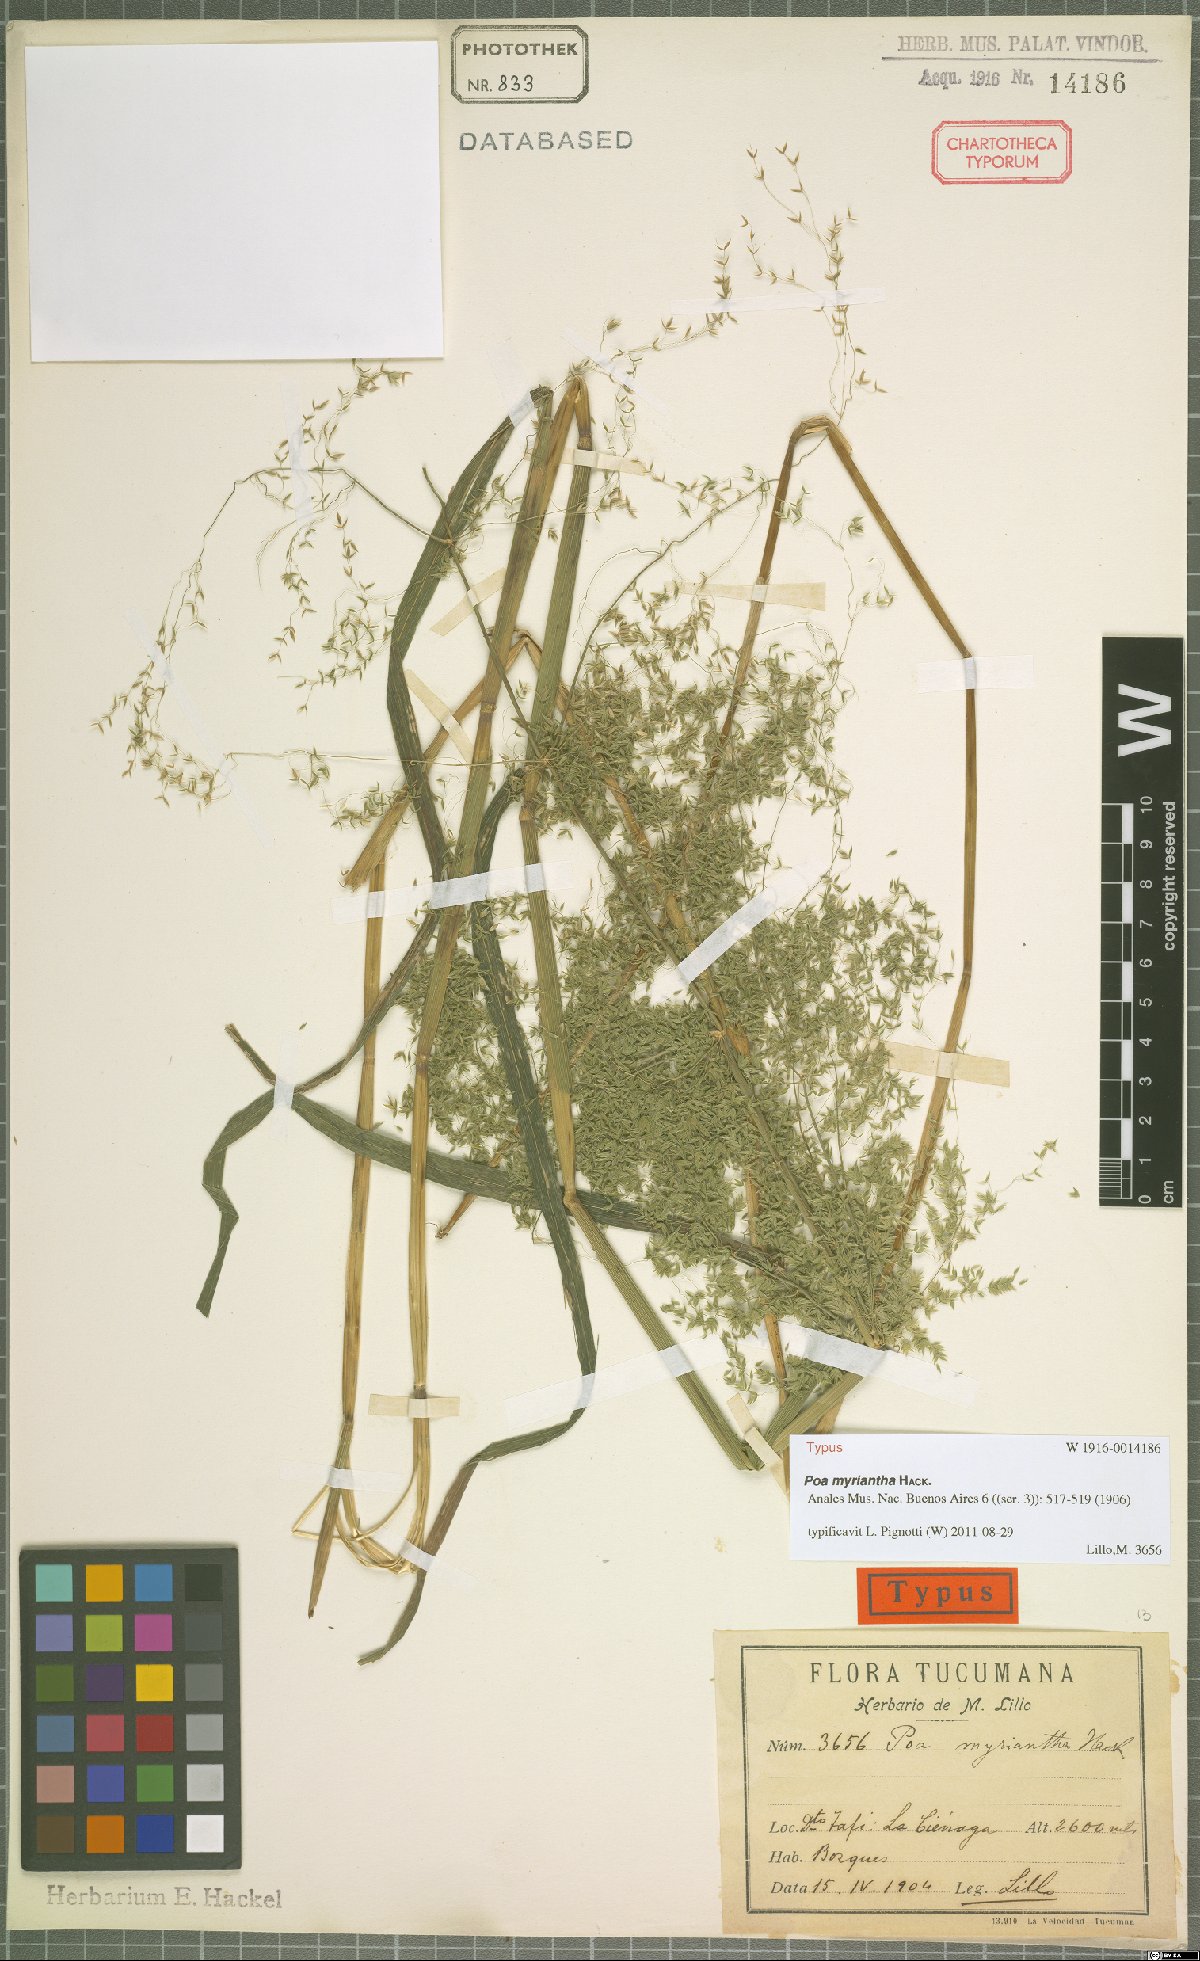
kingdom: Plantae
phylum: Tracheophyta
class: Liliopsida
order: Poales
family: Poaceae
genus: Poa
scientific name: Poa myriantha
